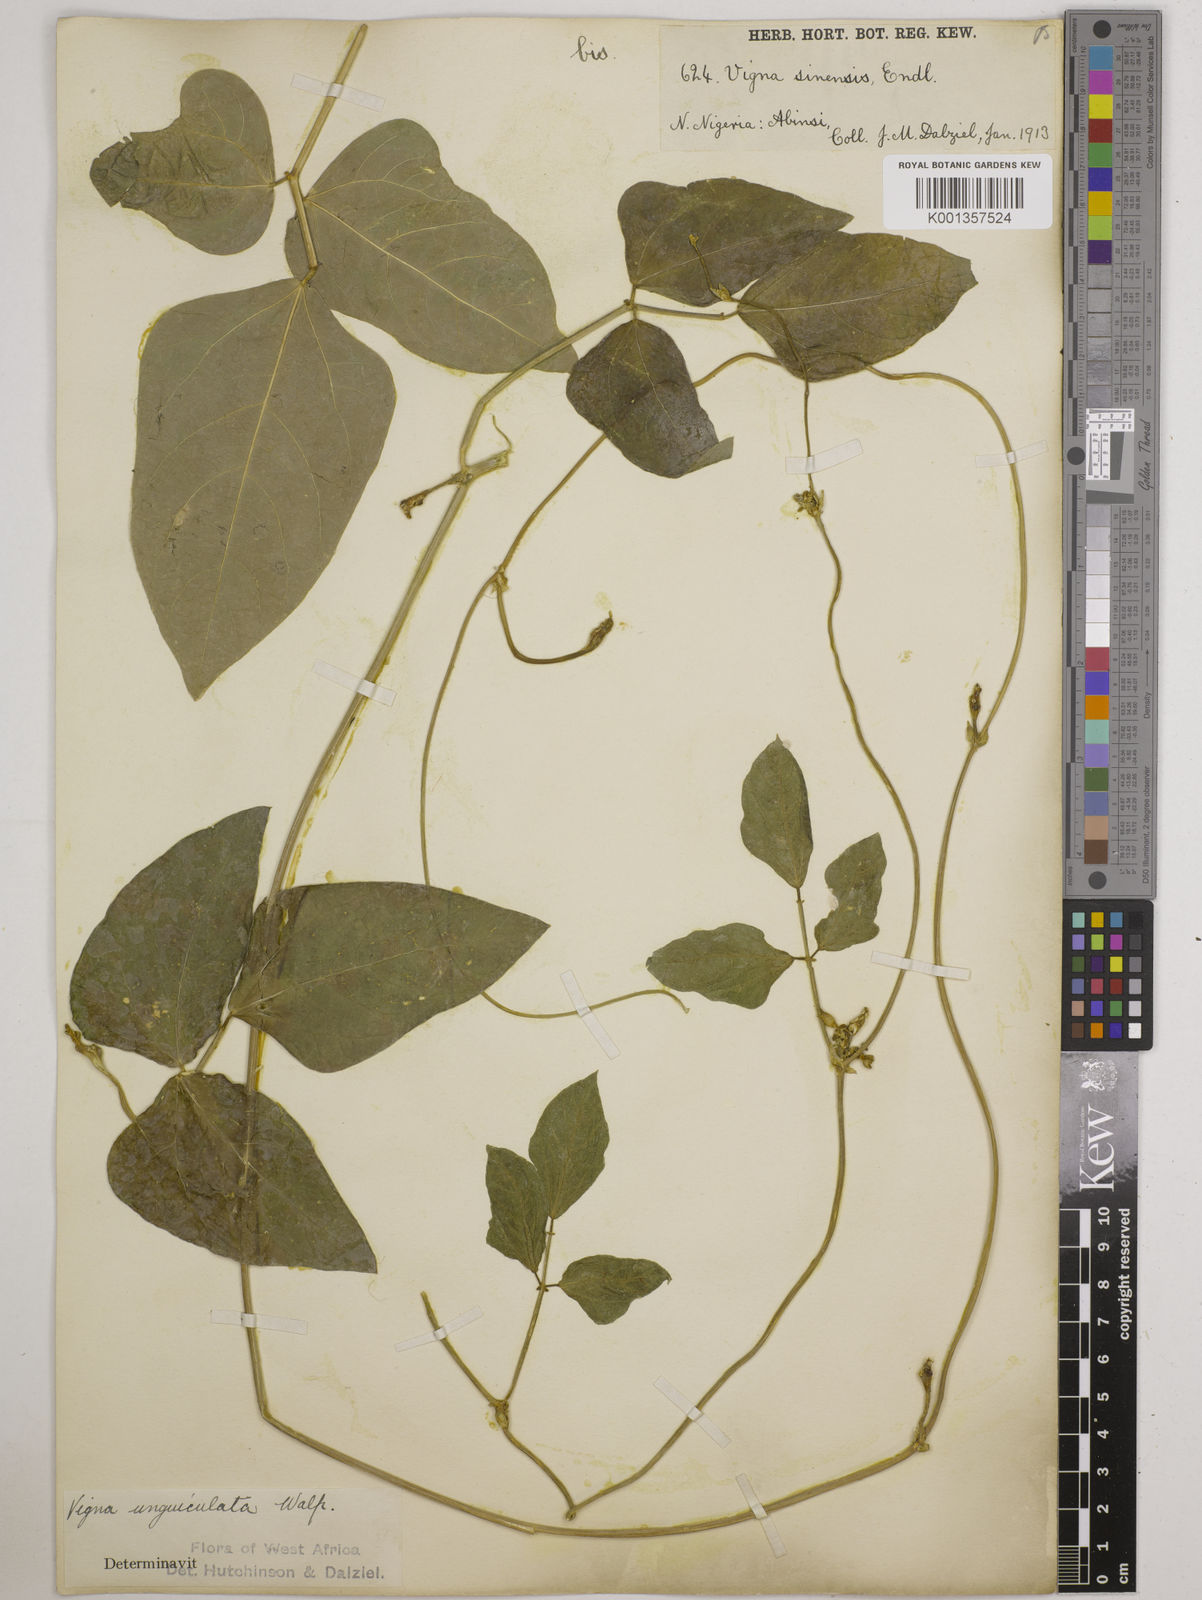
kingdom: Plantae
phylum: Tracheophyta
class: Magnoliopsida
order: Fabales
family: Fabaceae
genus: Vigna
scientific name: Vigna
